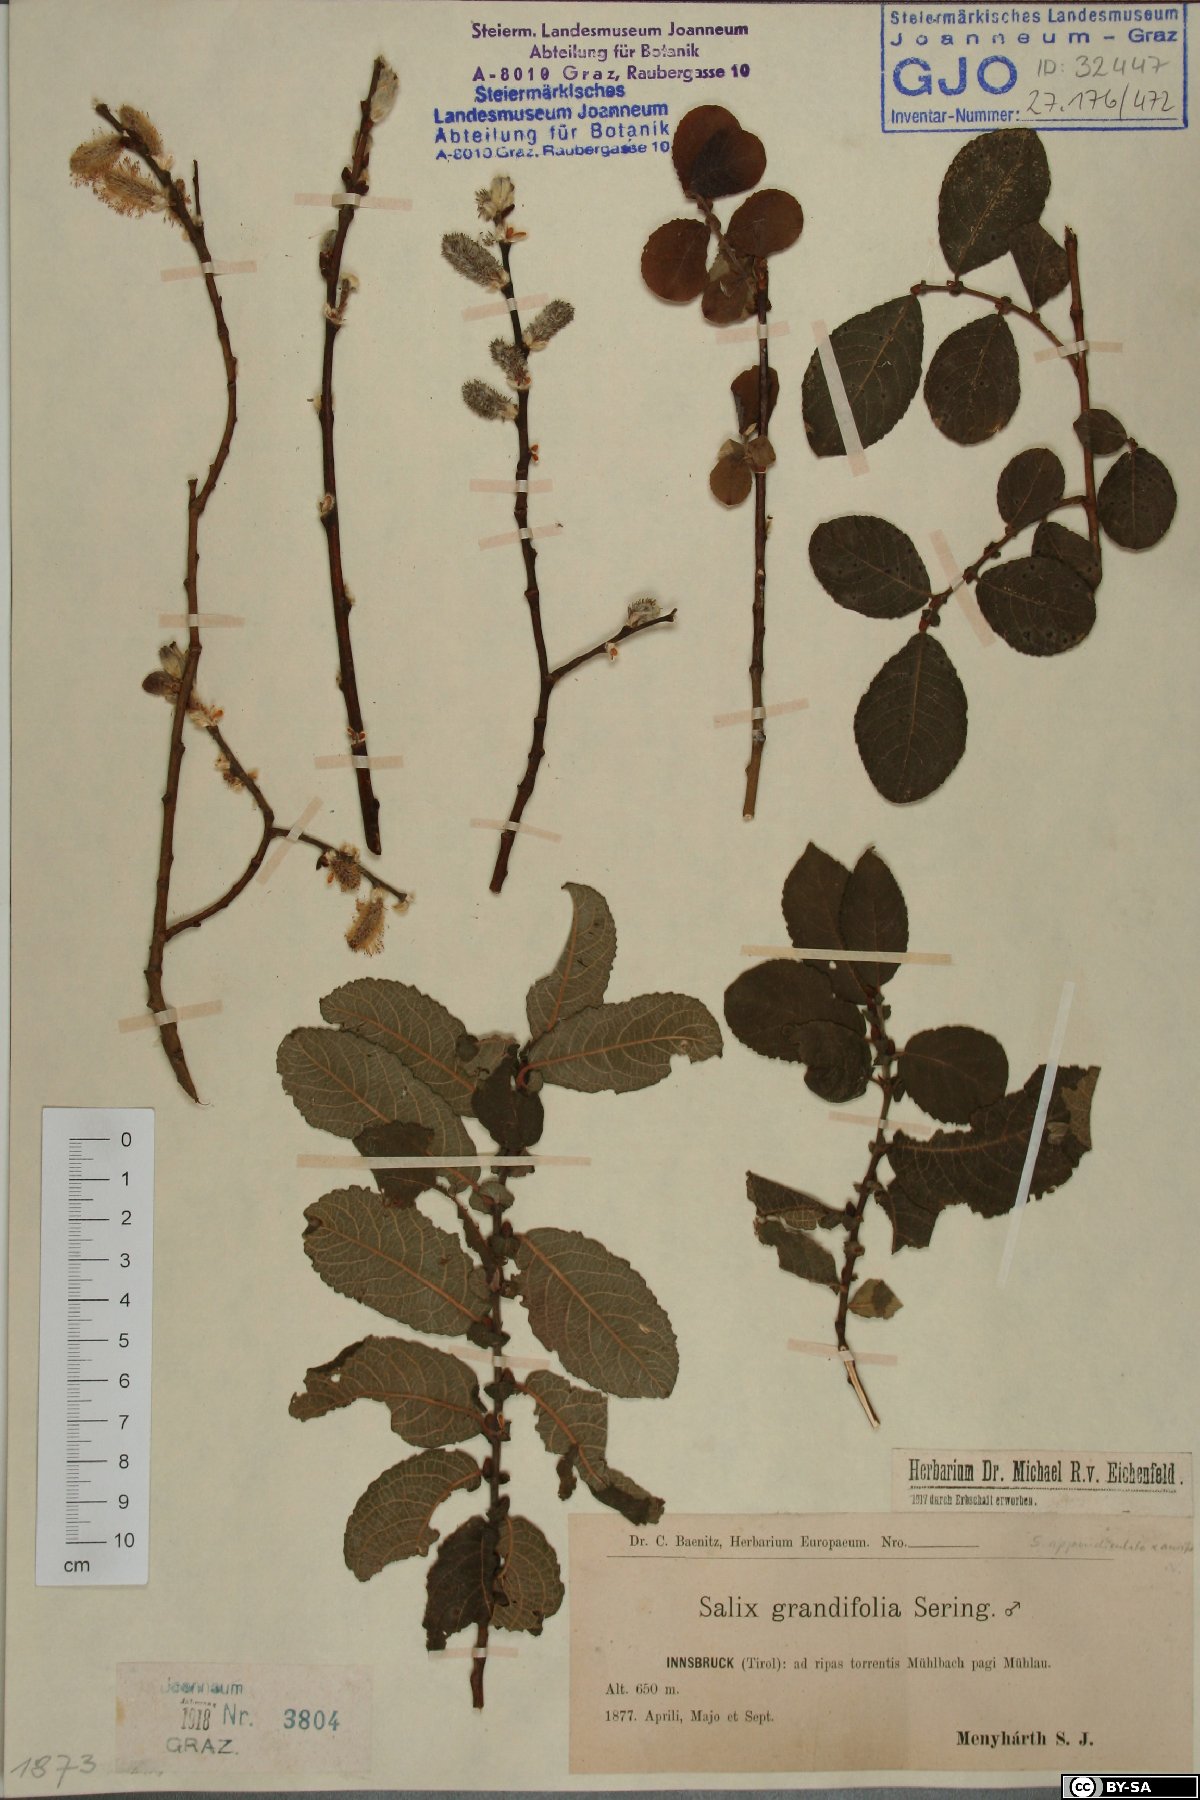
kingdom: Plantae
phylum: Tracheophyta
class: Magnoliopsida
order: Malpighiales
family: Salicaceae
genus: Salix
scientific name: Salix appendiculata
